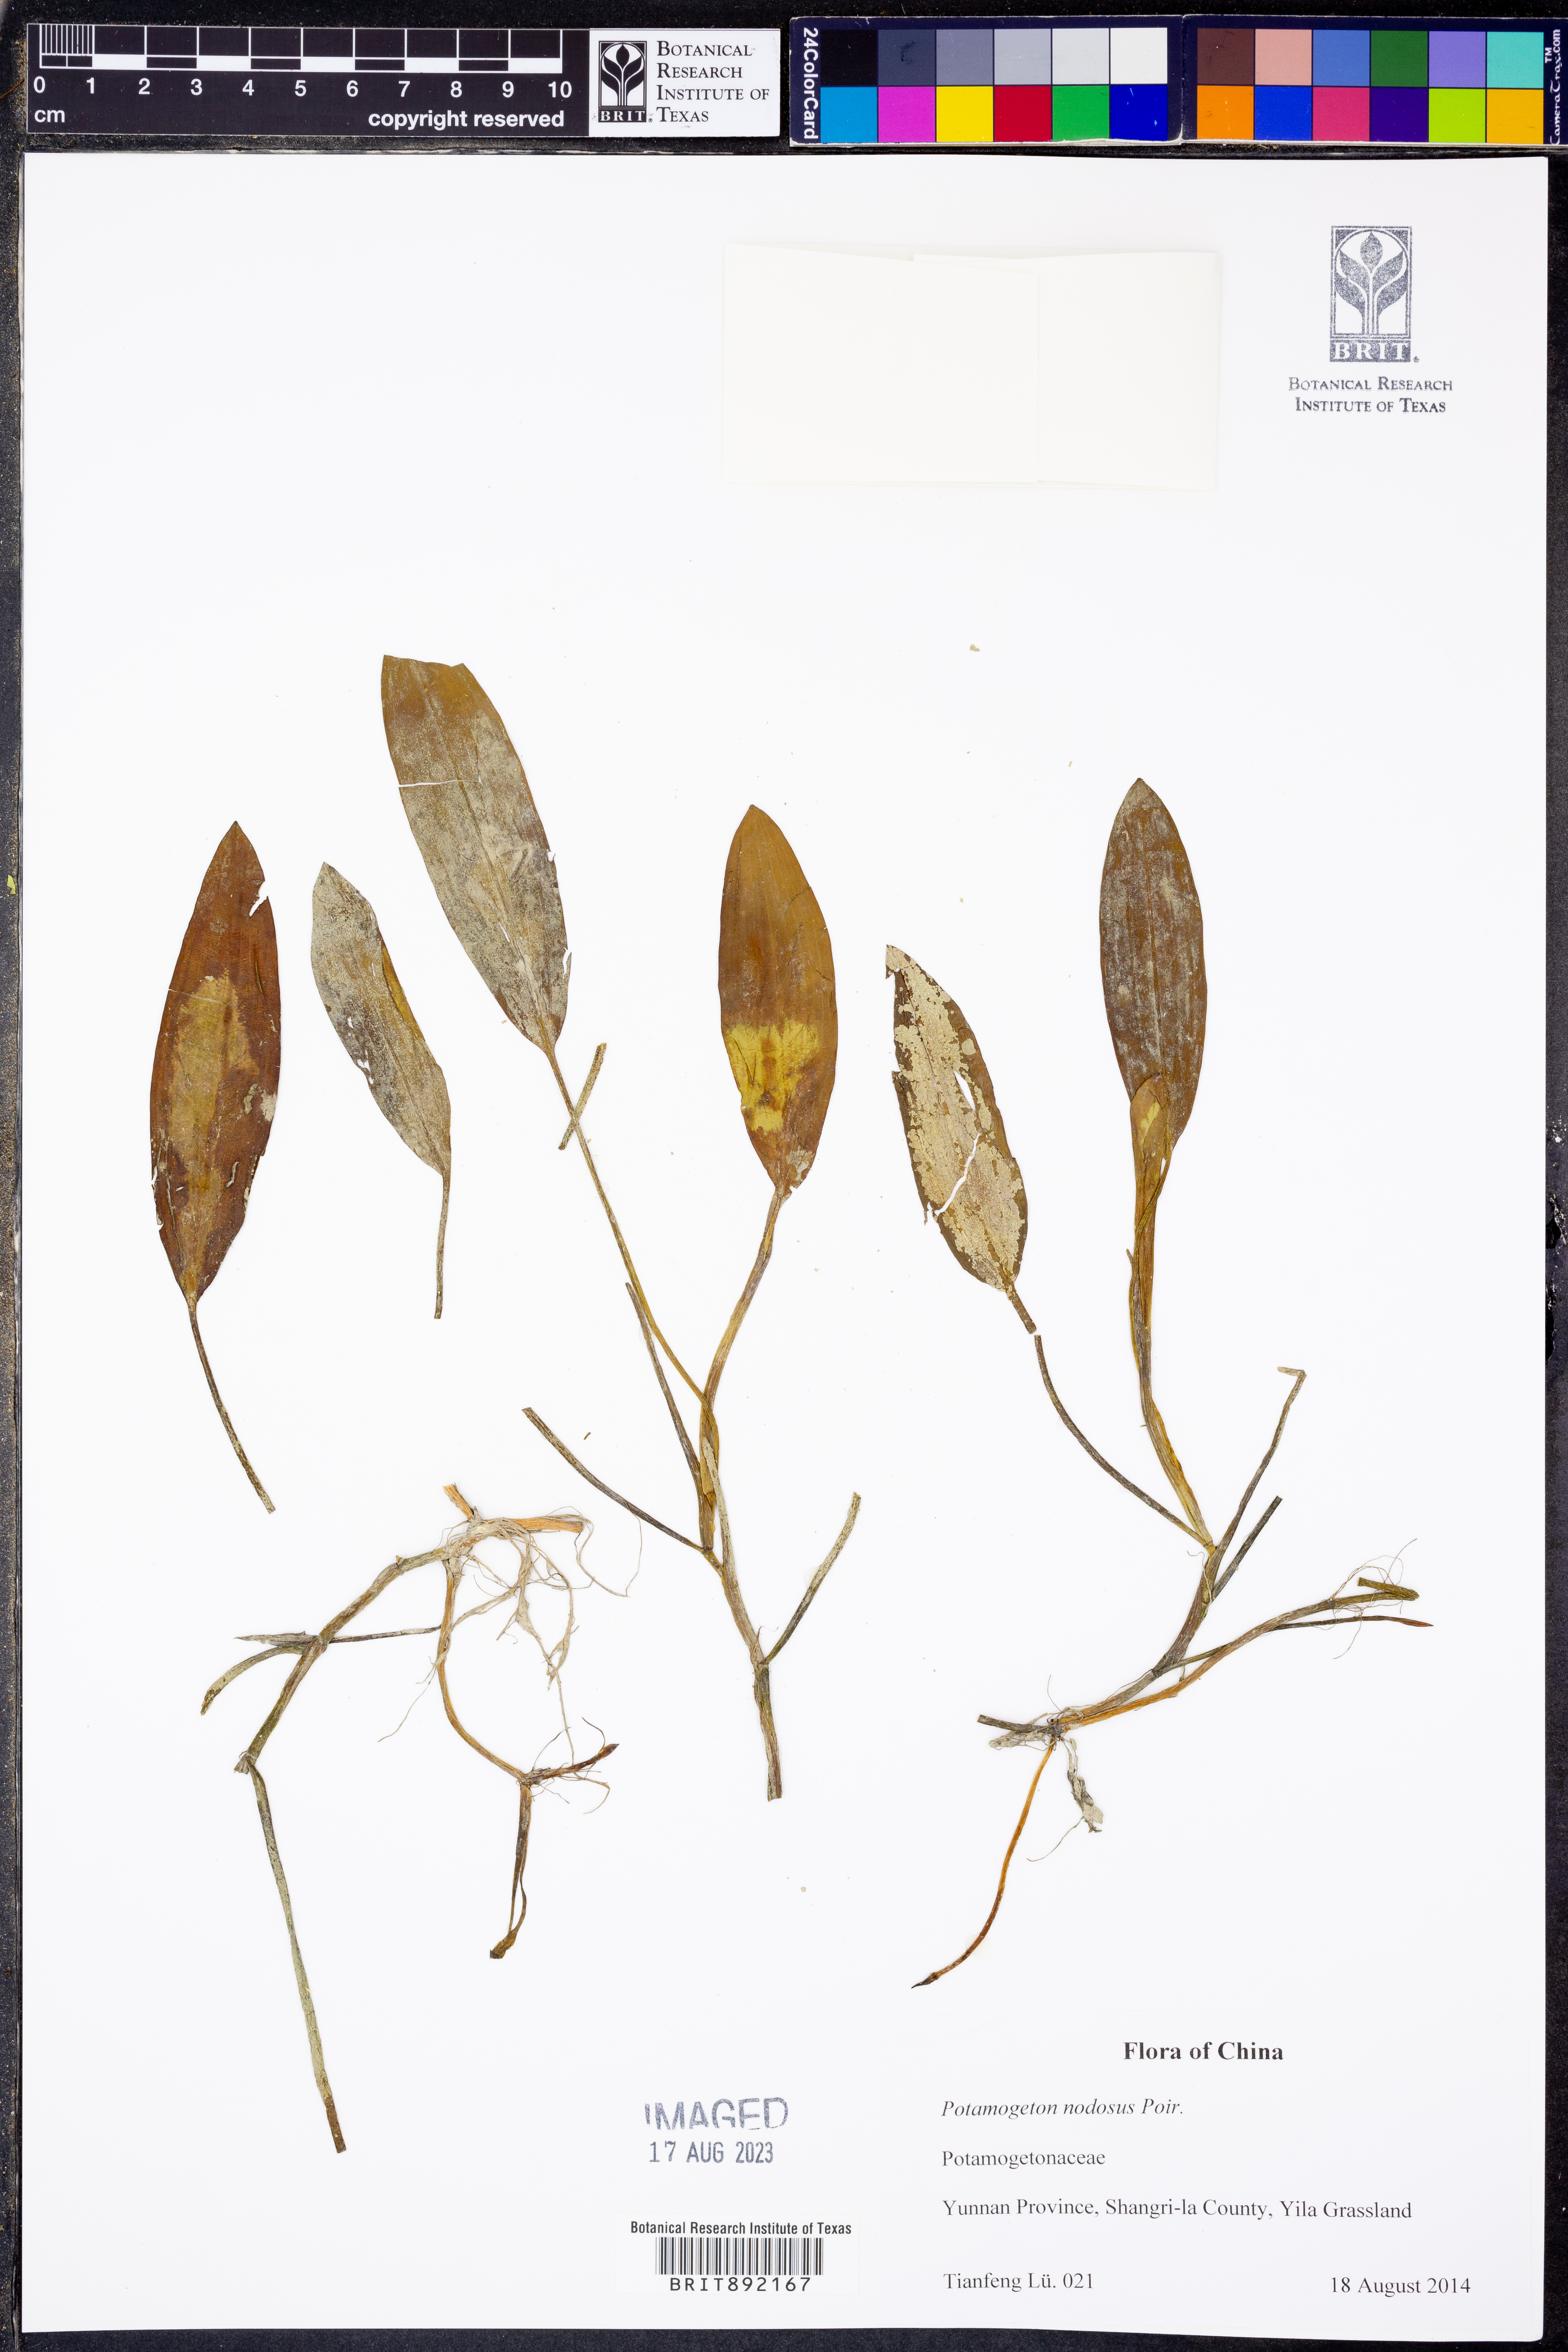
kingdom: Plantae
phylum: Tracheophyta
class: Liliopsida
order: Alismatales
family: Potamogetonaceae
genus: Potamogeton
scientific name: Potamogeton nodosus
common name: Loddon pondweed
